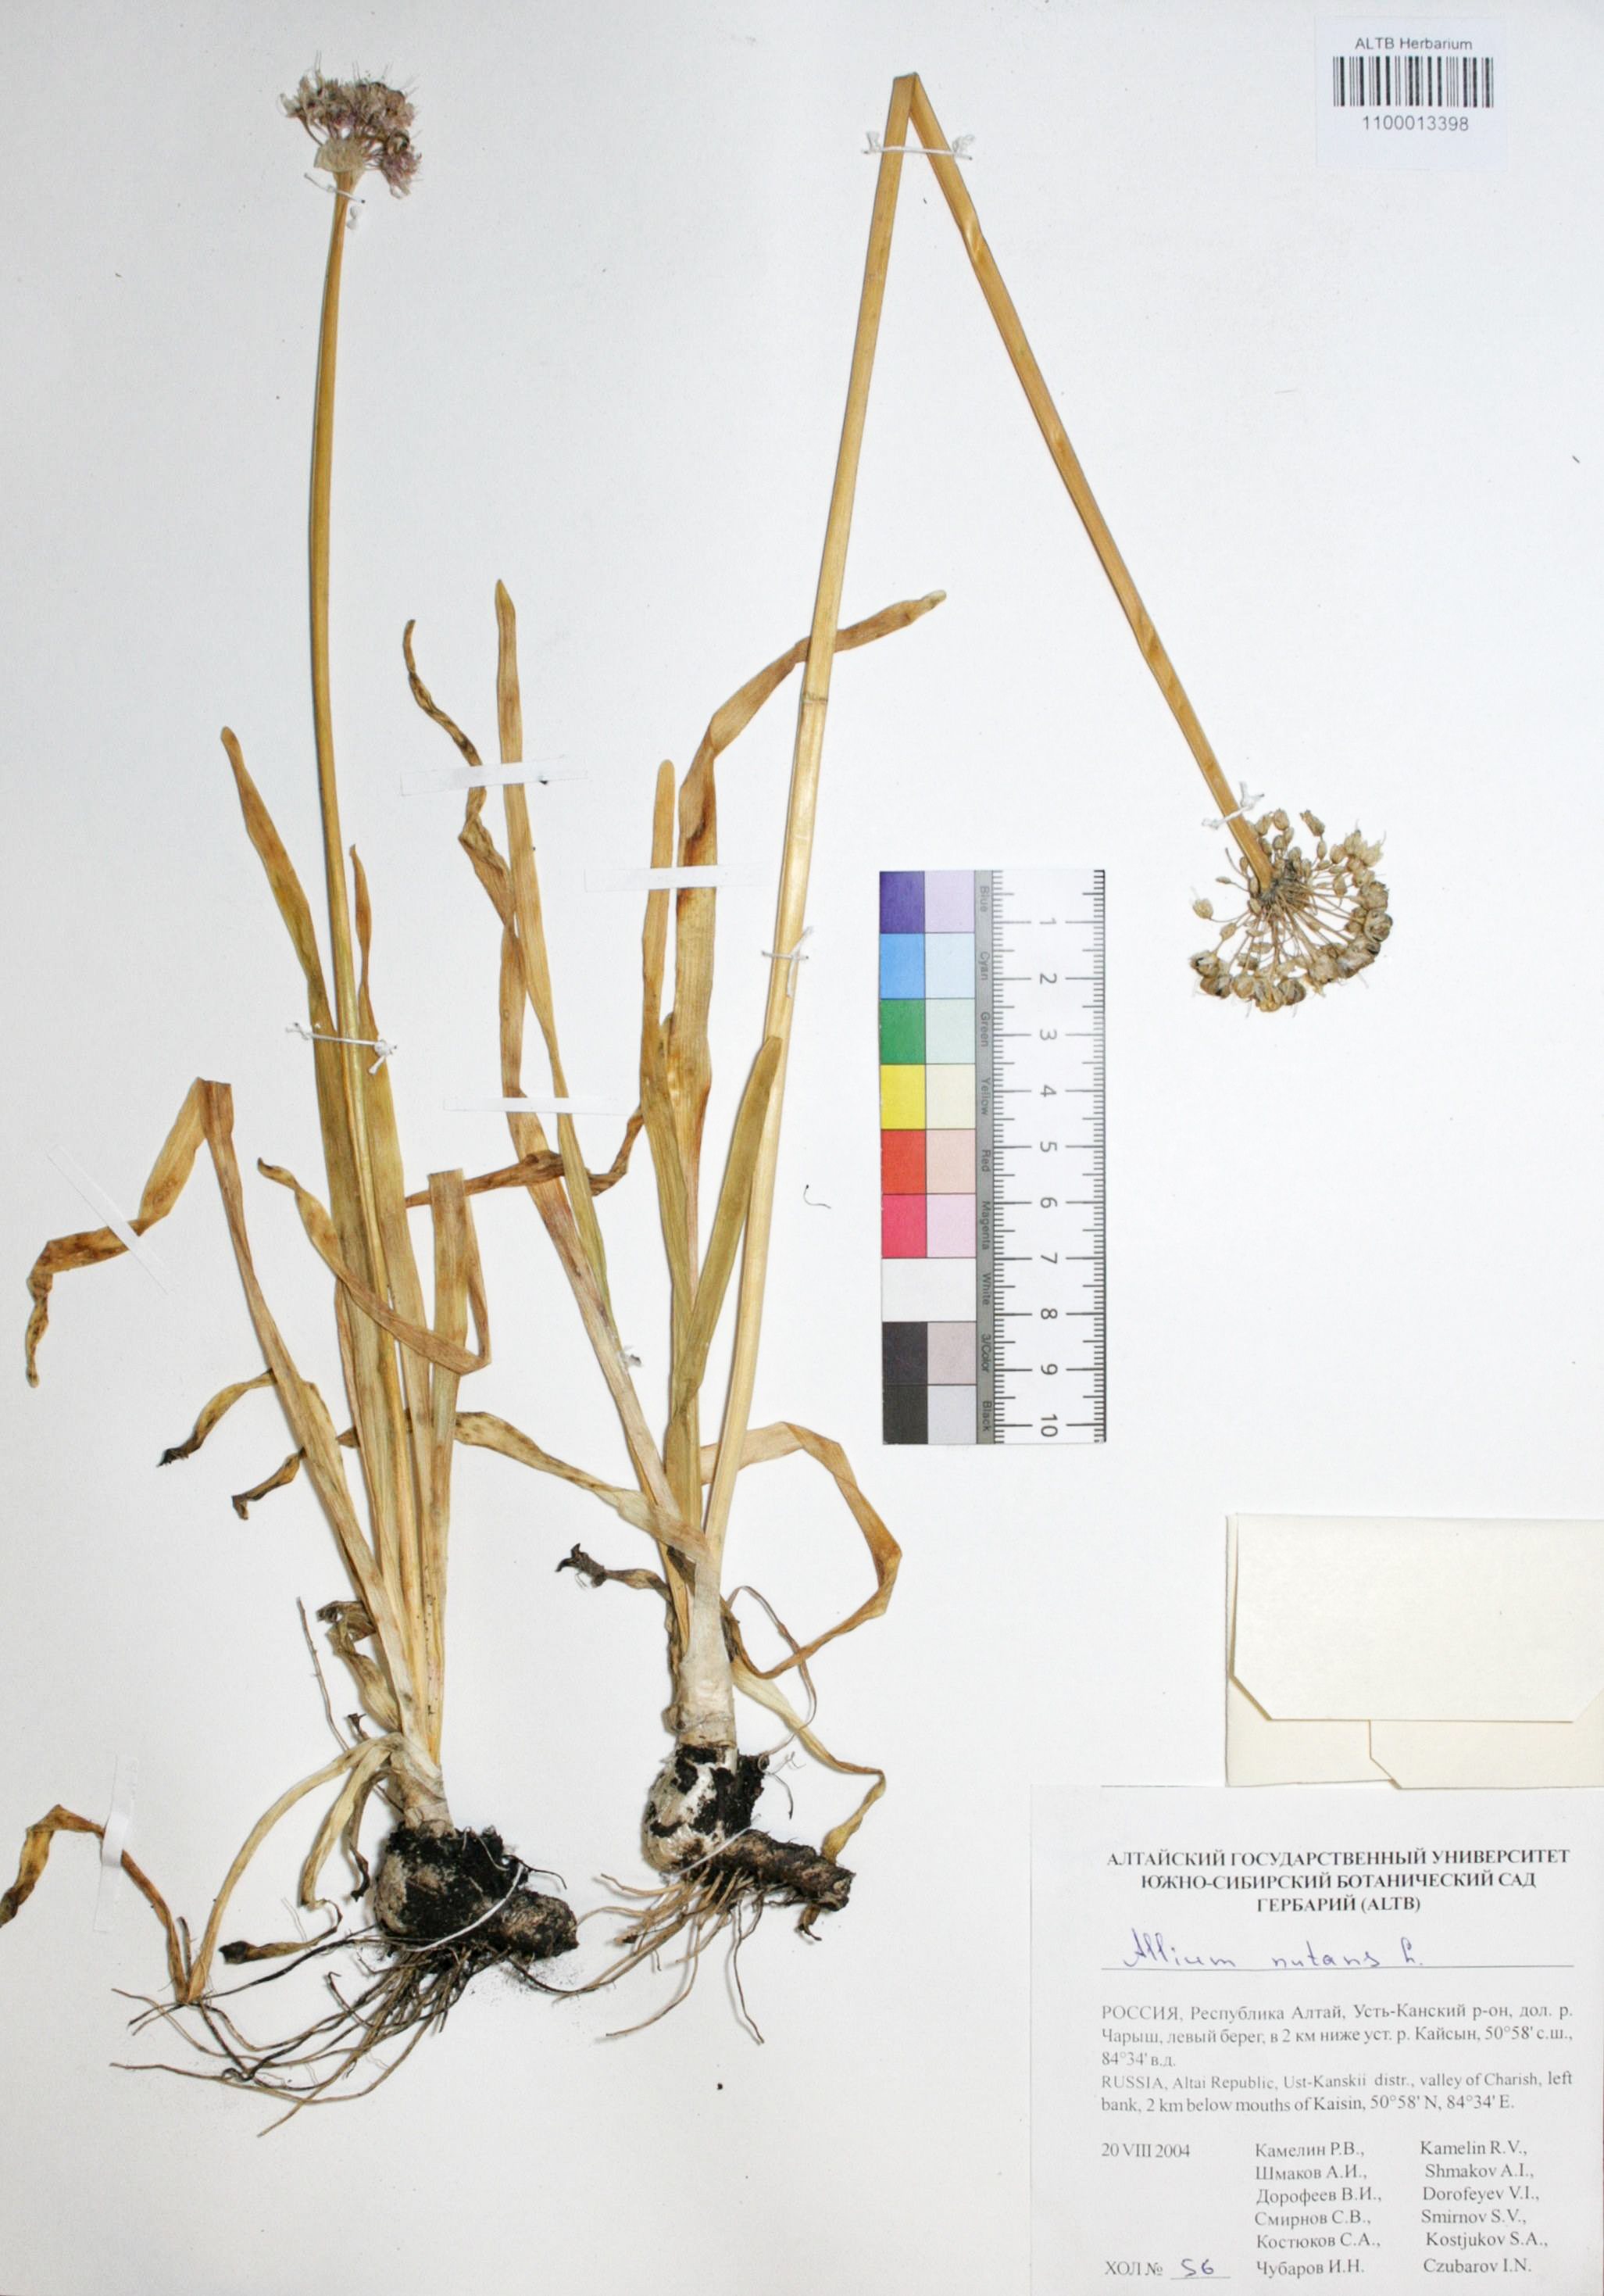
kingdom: Plantae
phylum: Tracheophyta
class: Liliopsida
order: Asparagales
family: Amaryllidaceae
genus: Allium
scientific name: Allium nutans
